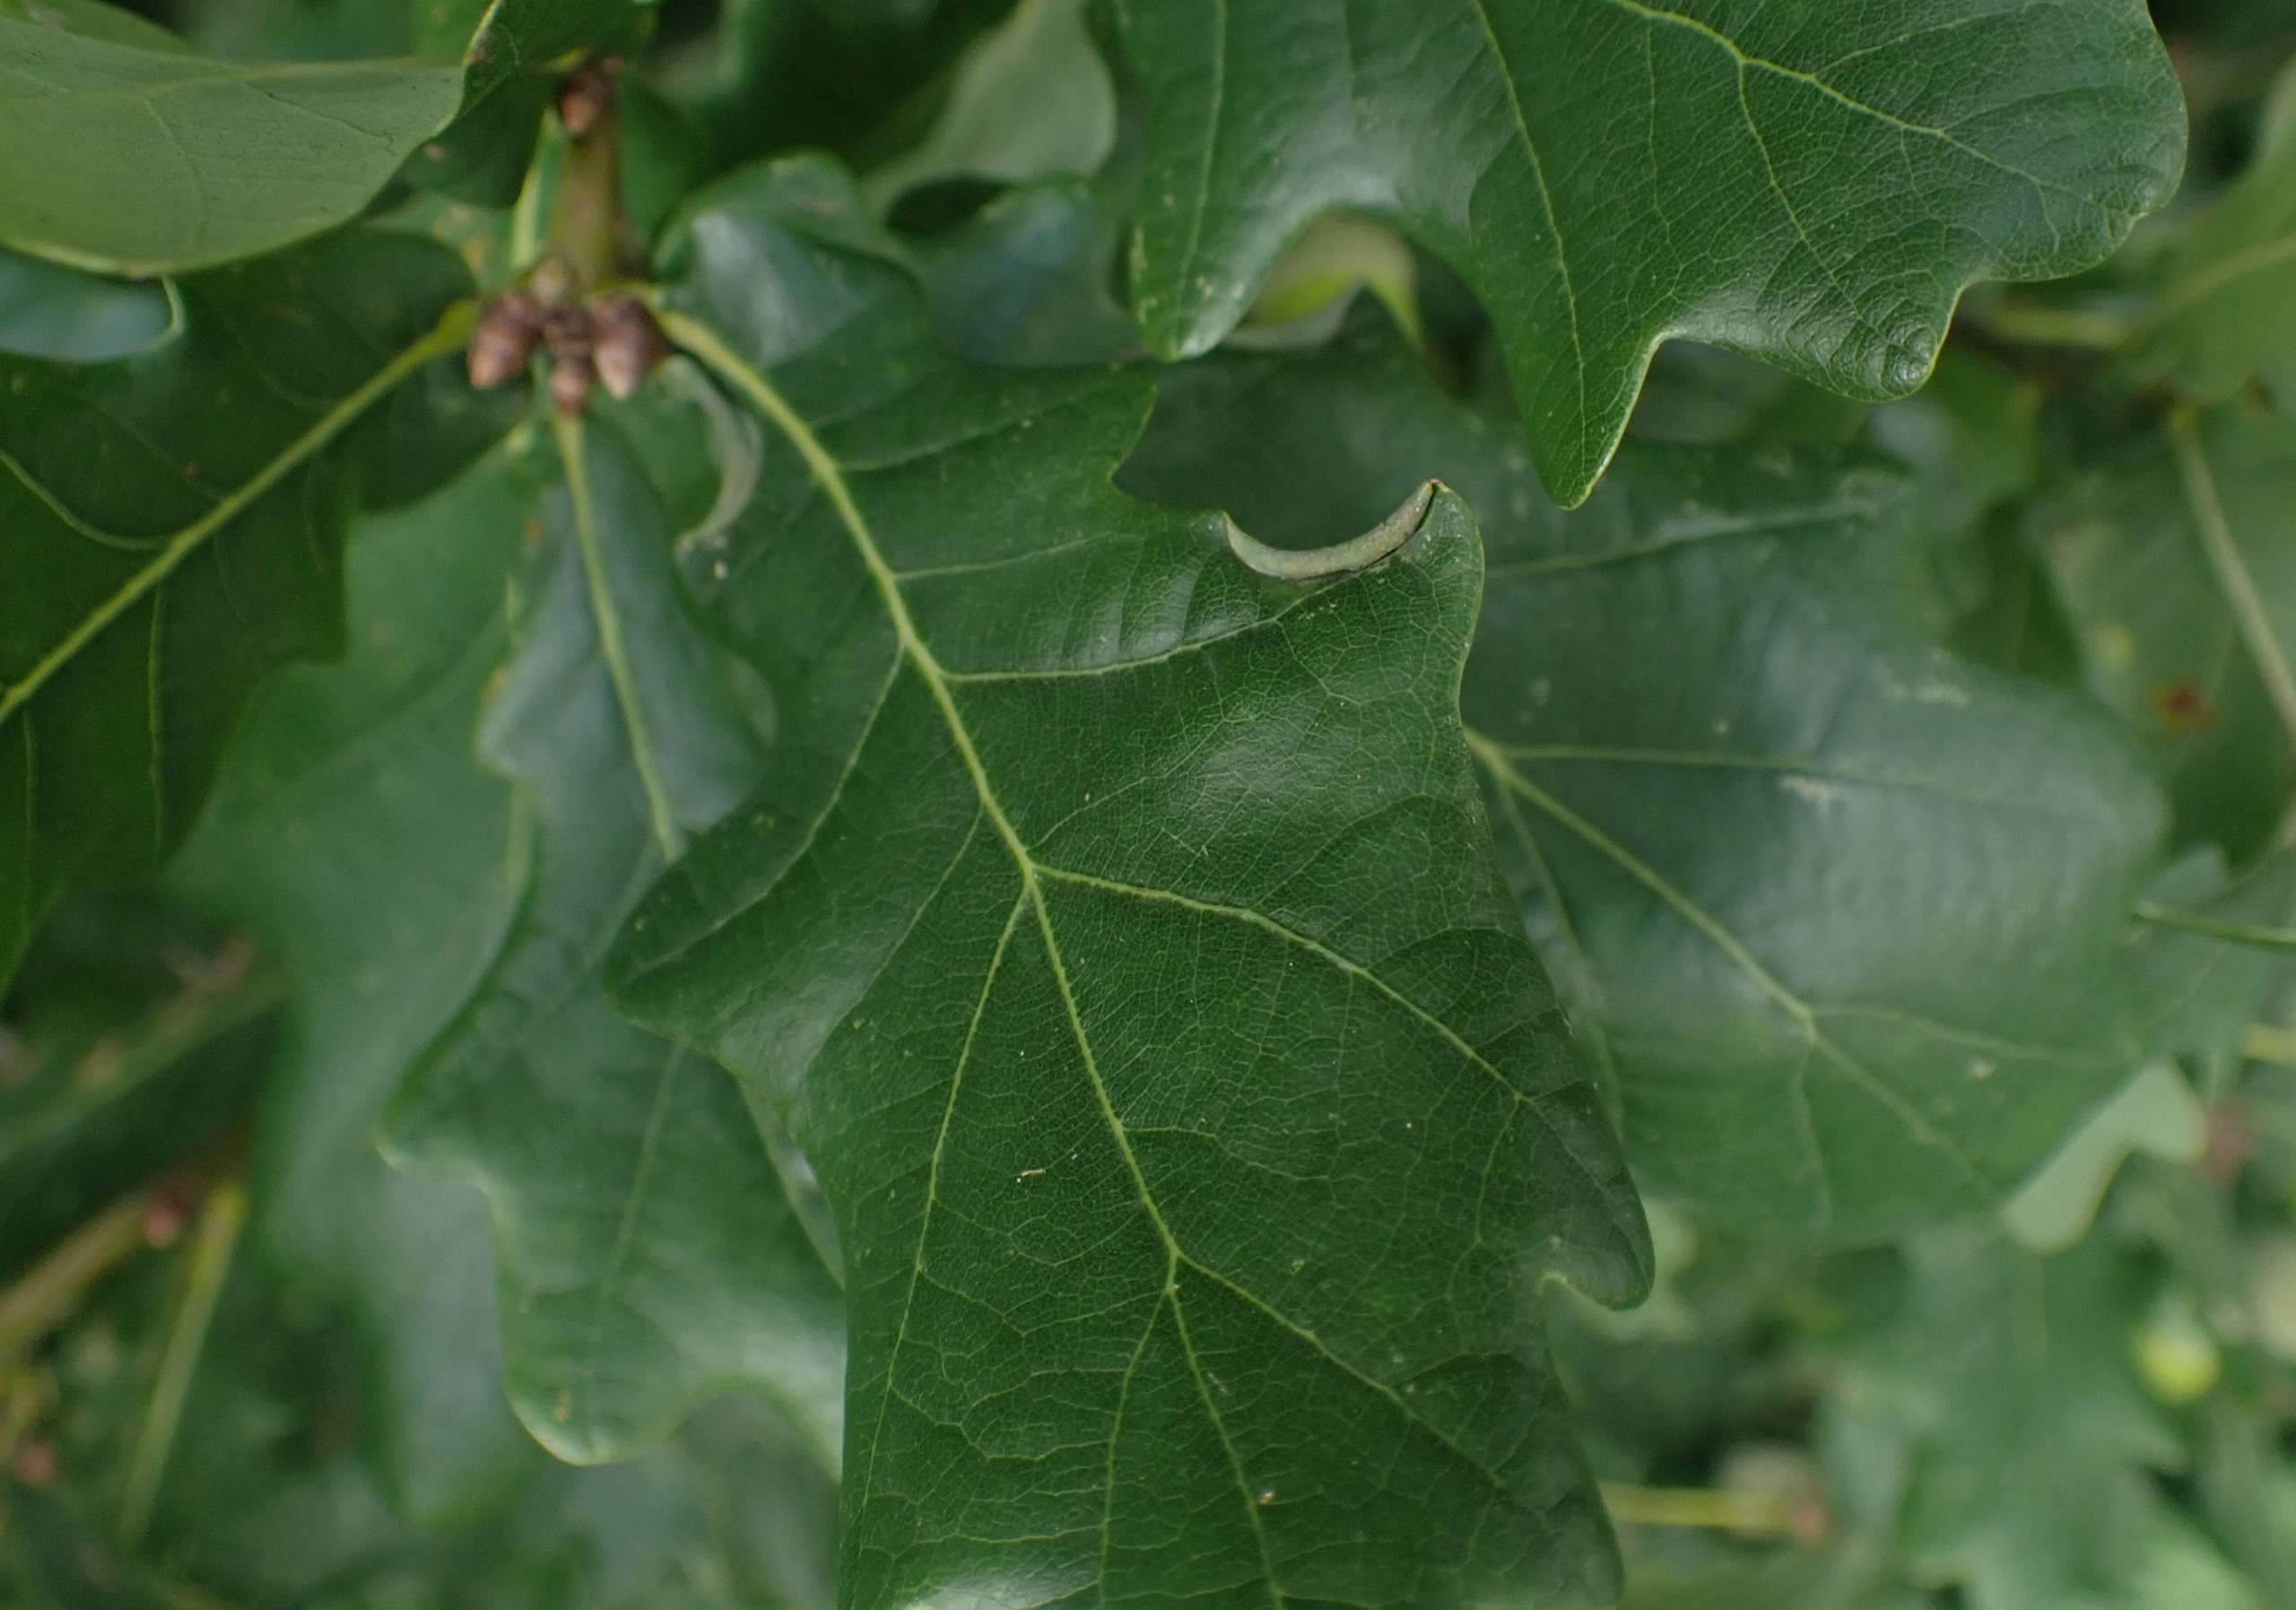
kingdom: Animalia
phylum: Arthropoda
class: Insecta
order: Diptera
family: Cecidomyiidae
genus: Macrodiplosis
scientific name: Macrodiplosis volvens
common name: Egerullegalmyg
